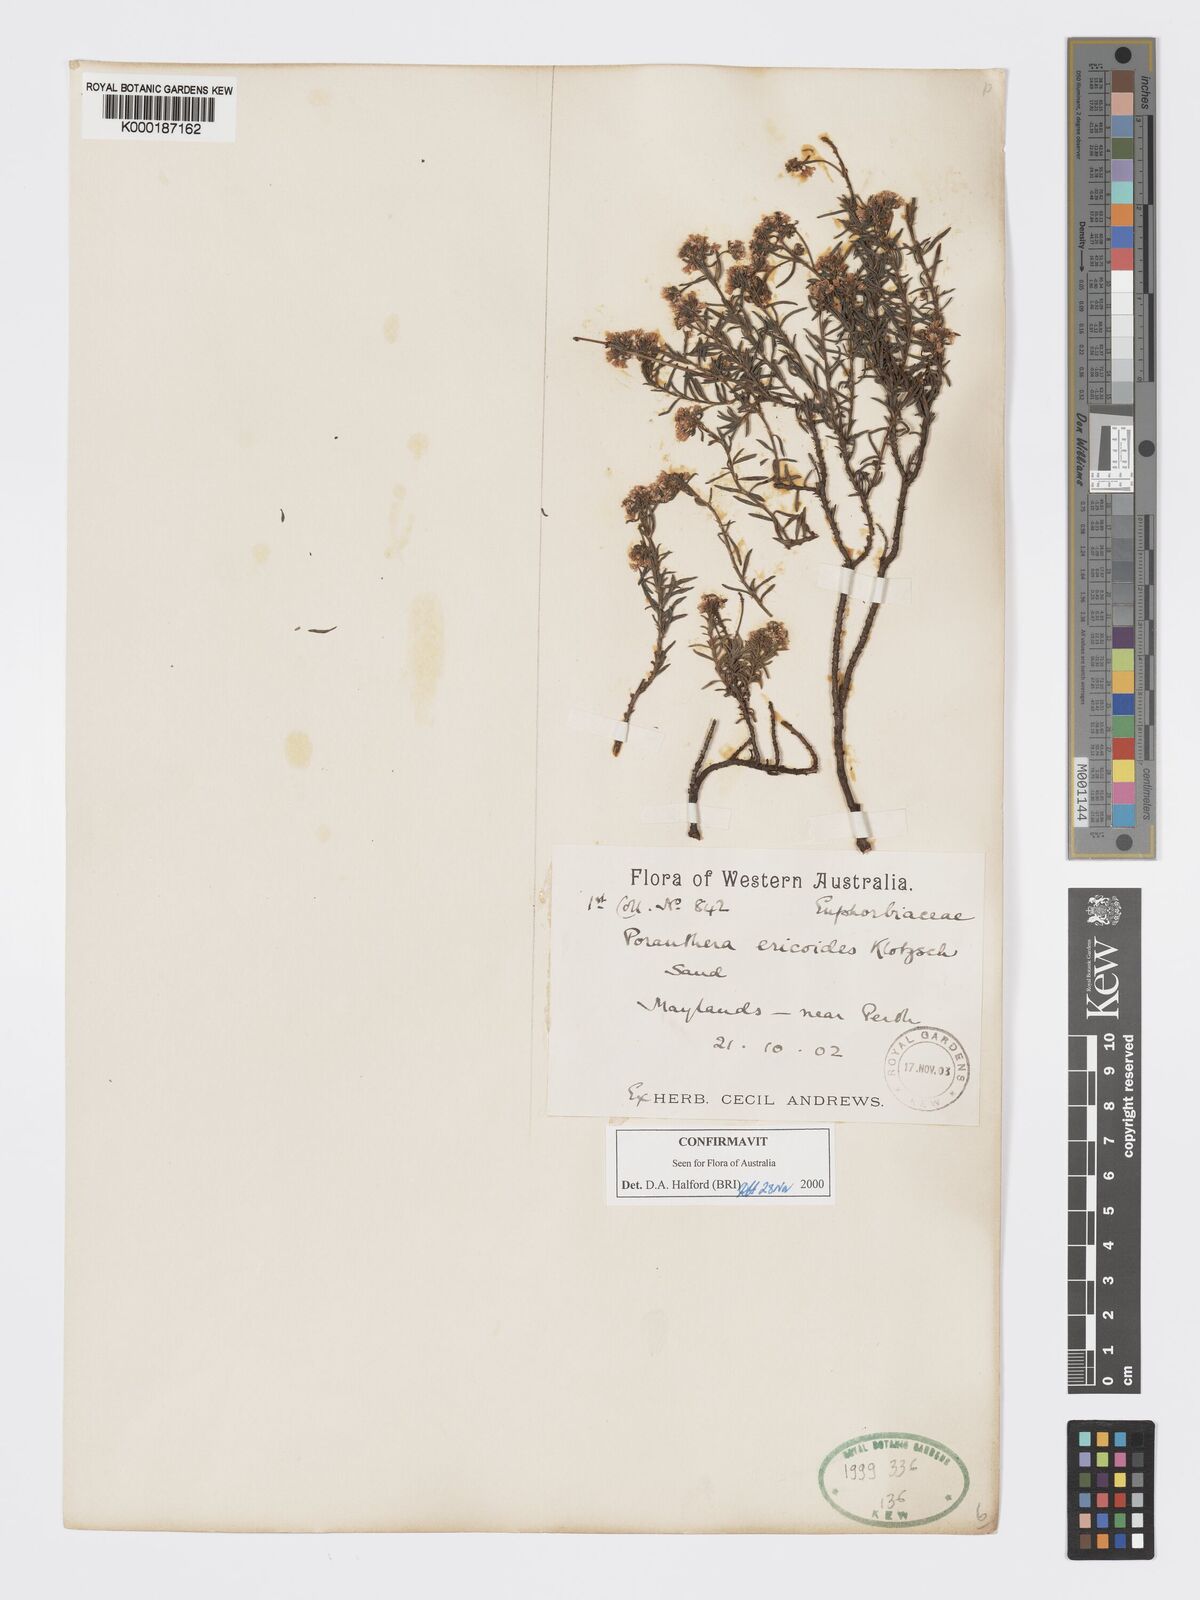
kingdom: Plantae
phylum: Tracheophyta
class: Magnoliopsida
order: Malpighiales
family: Phyllanthaceae
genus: Poranthera
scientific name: Poranthera ericoides
